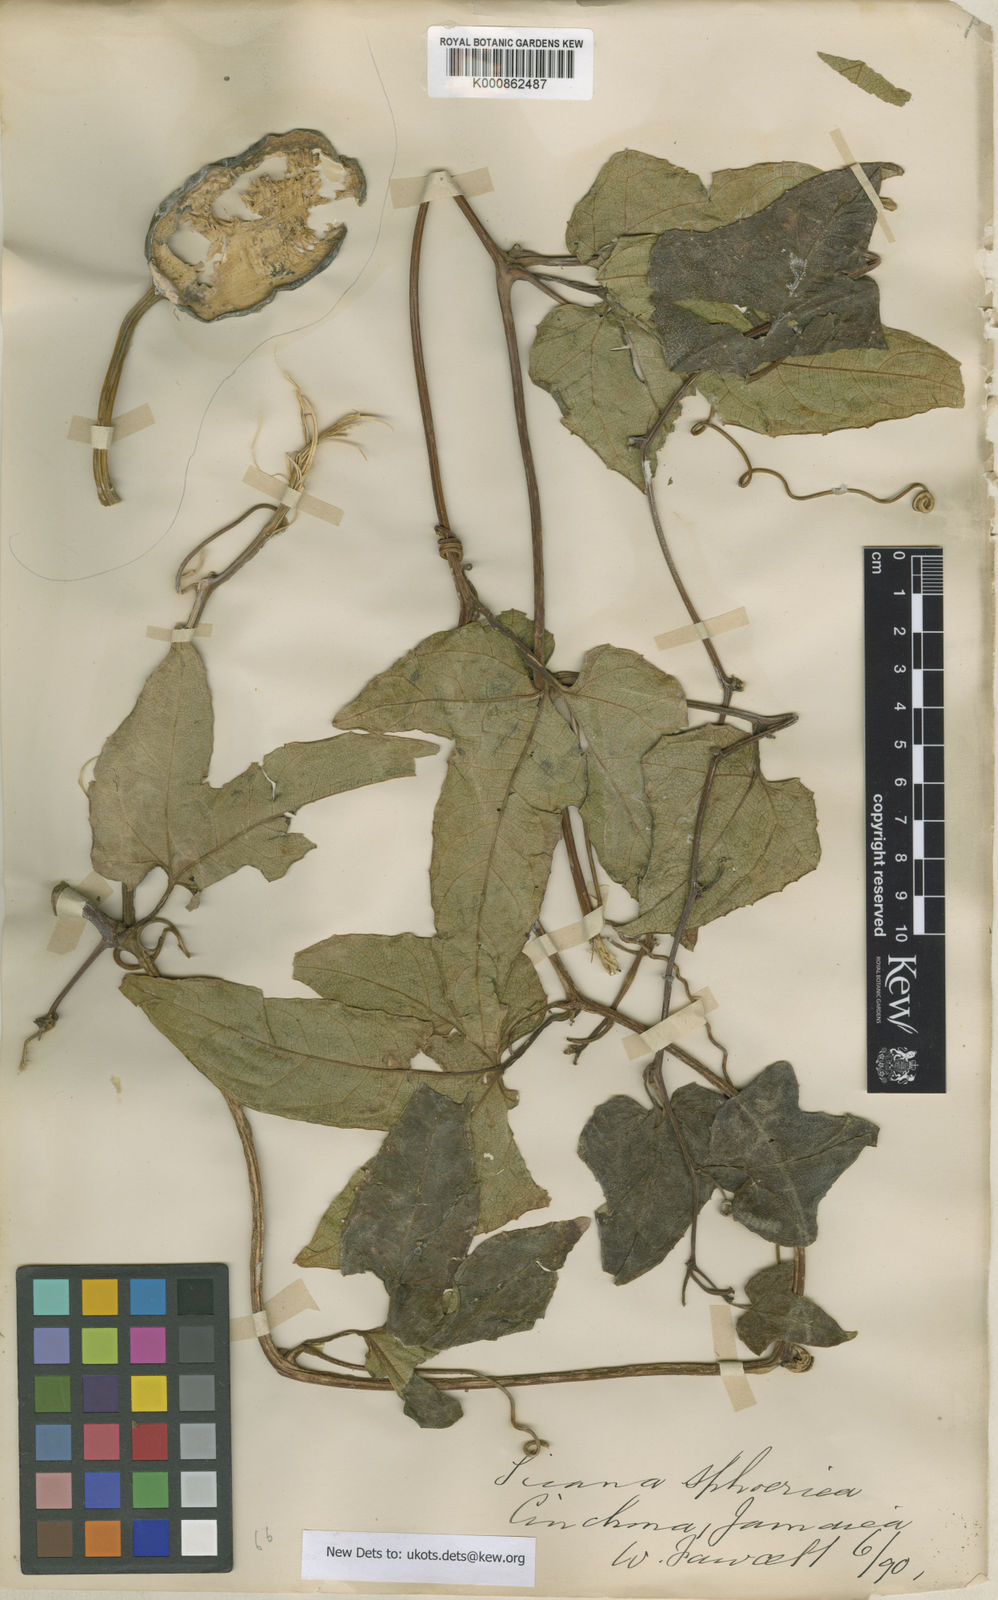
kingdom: Plantae
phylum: Tracheophyta
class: Magnoliopsida
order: Cucurbitales
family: Cucurbitaceae
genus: Cionosicys
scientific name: Cionosicys
